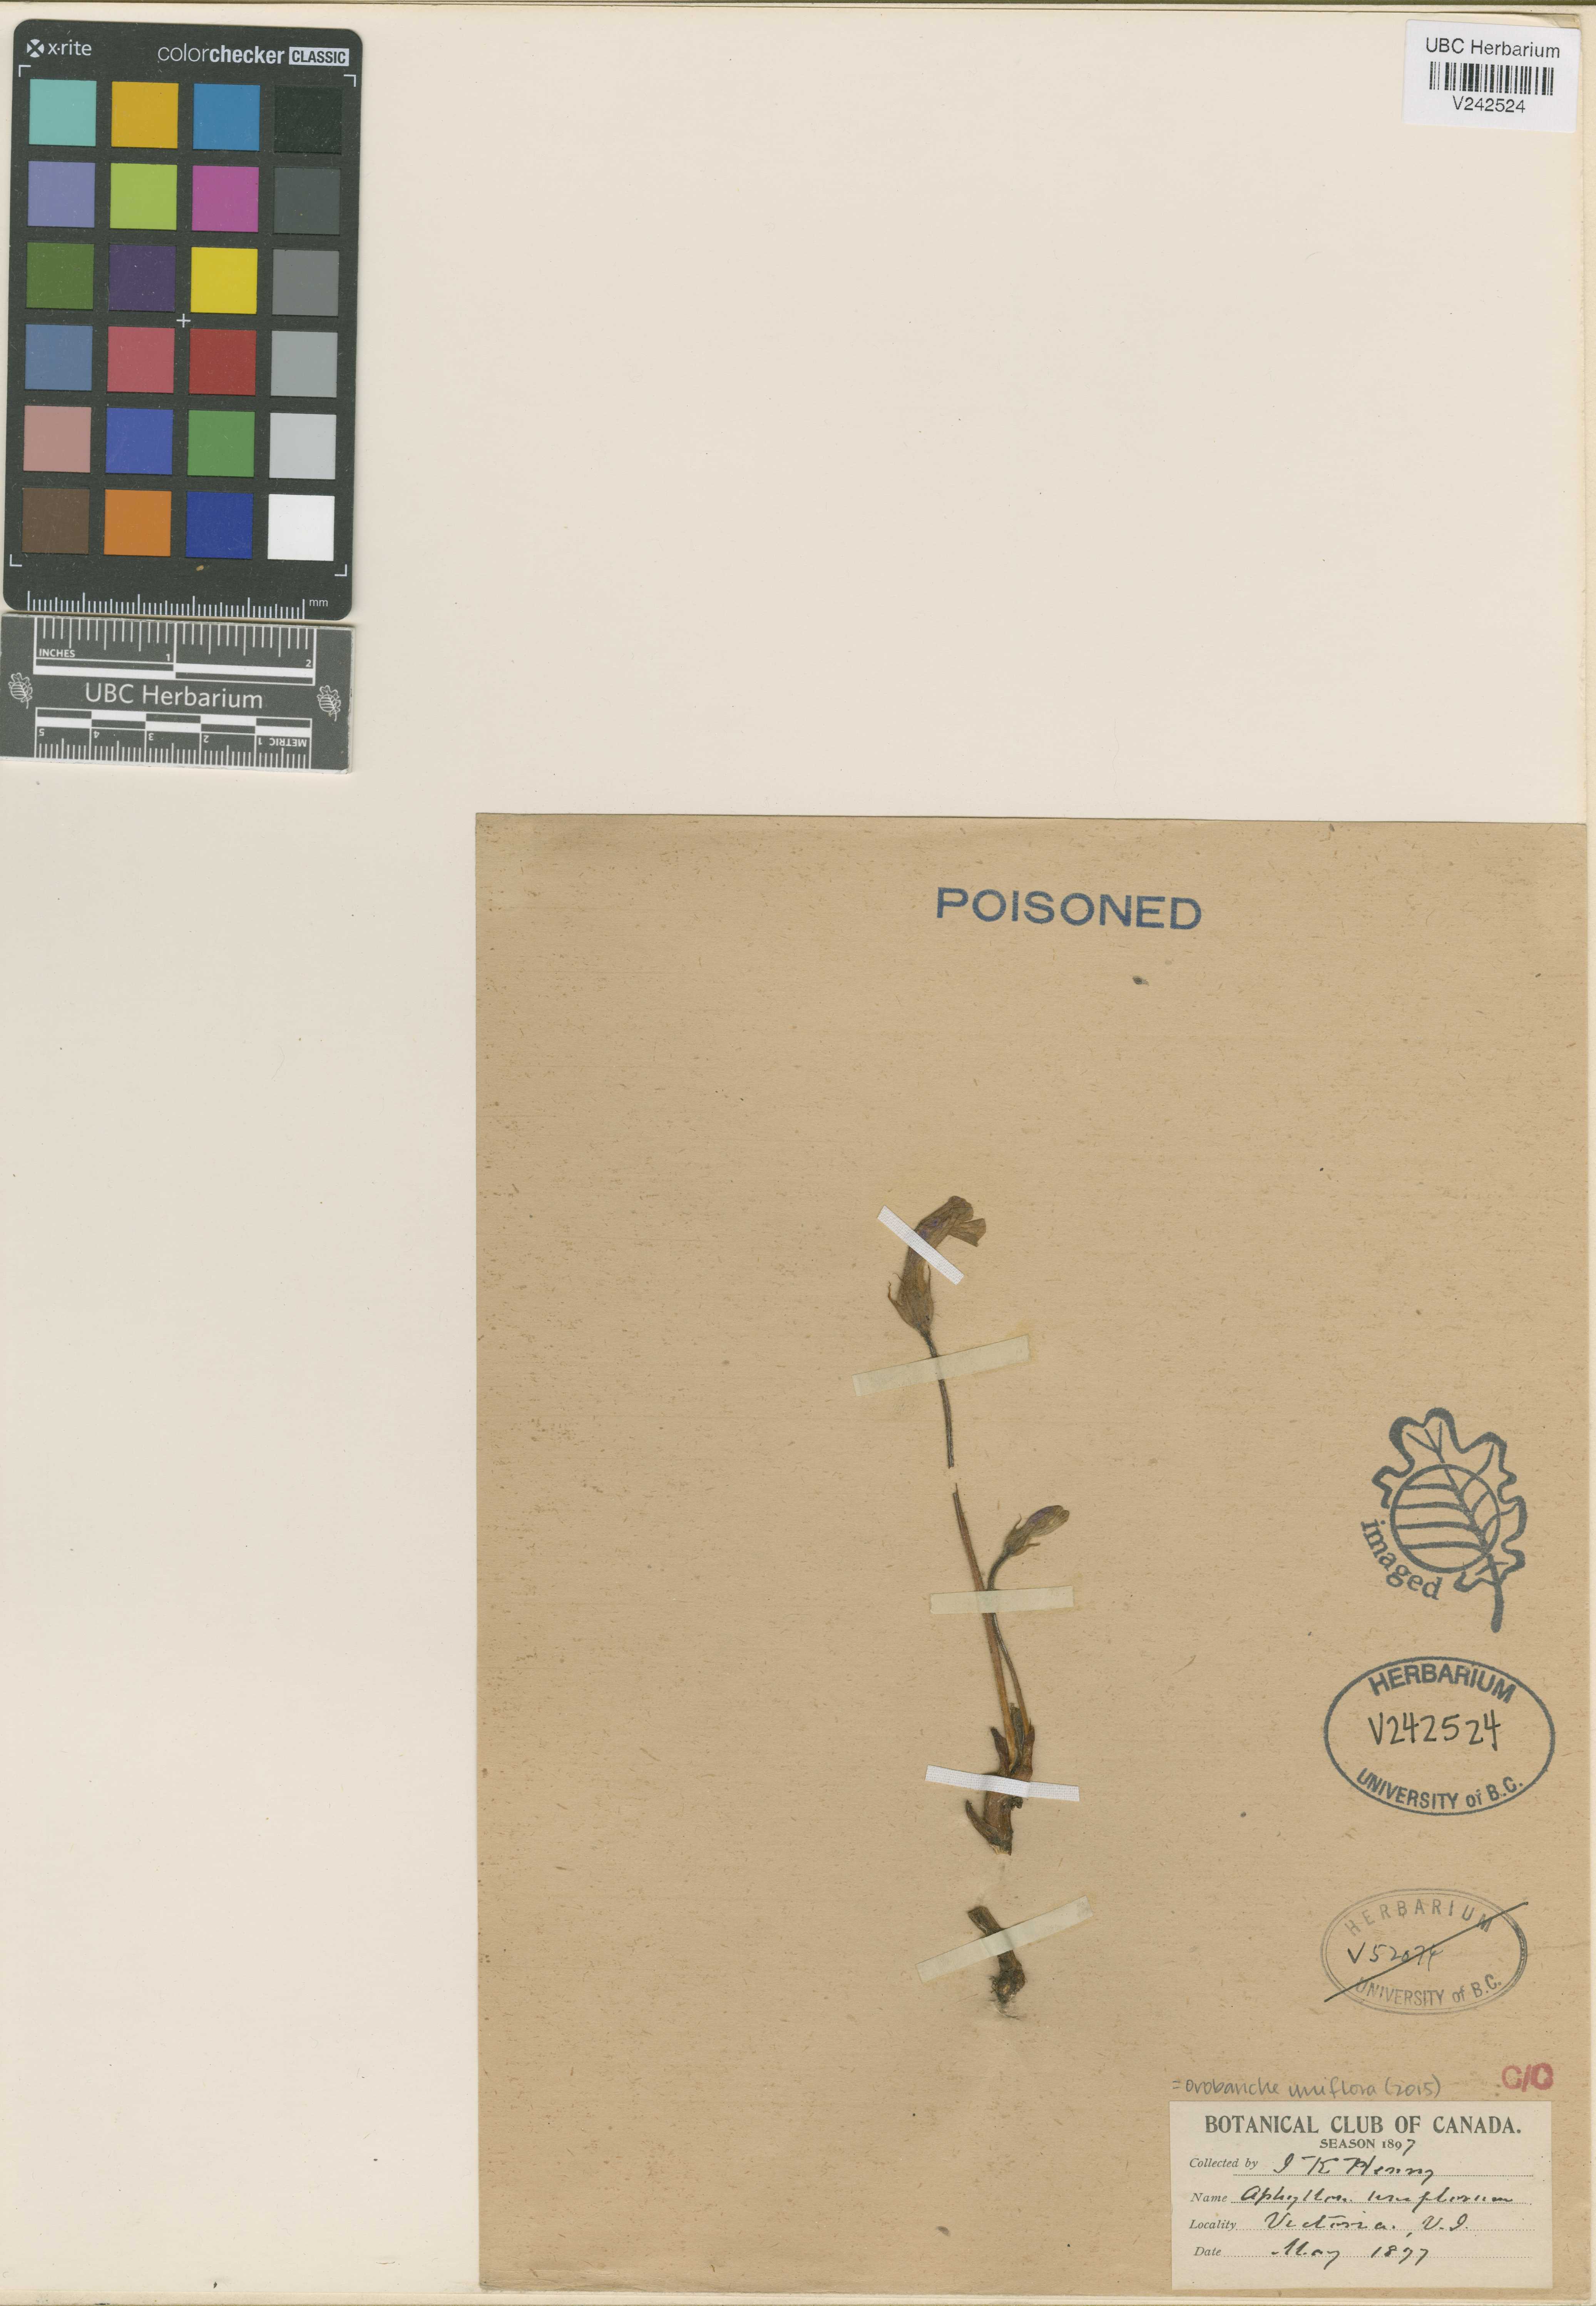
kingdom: Plantae
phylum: Tracheophyta
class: Magnoliopsida
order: Lamiales
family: Orobanchaceae
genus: Aphyllon
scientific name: Aphyllon uniflorum
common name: One-flowered broomrape
